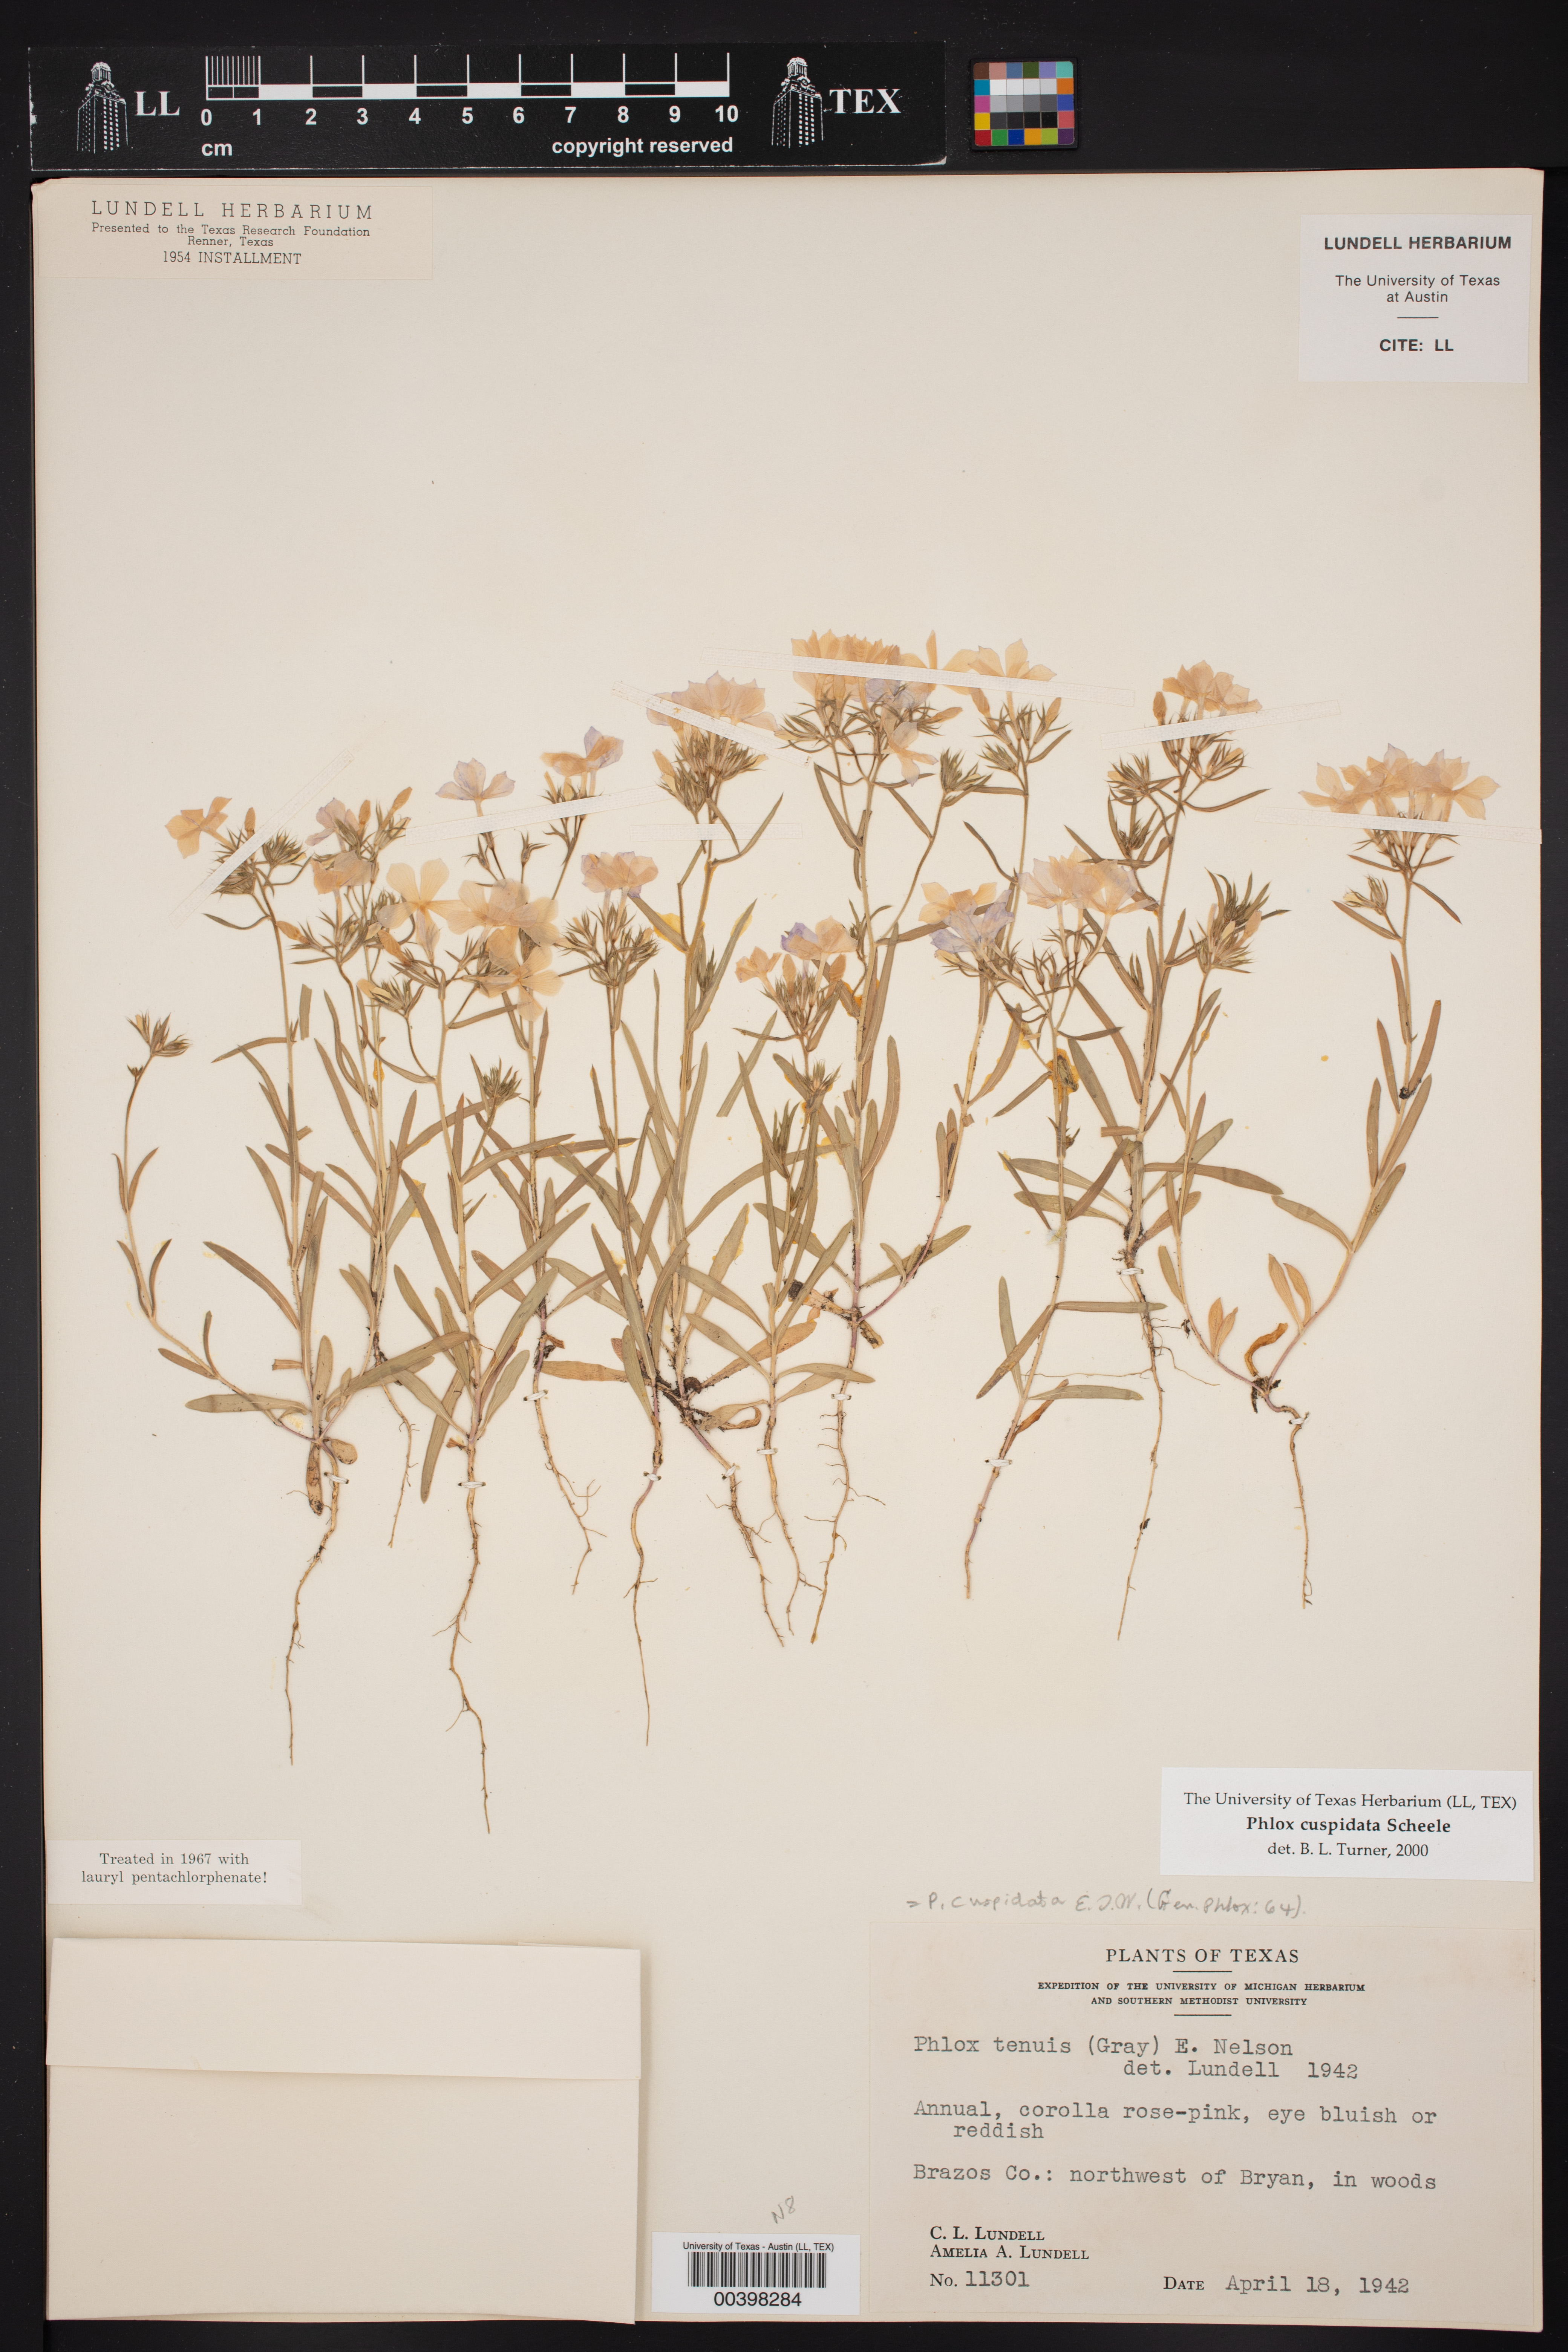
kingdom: Plantae
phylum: Tracheophyta
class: Magnoliopsida
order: Ericales
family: Polemoniaceae
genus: Phlox
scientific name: Phlox cuspidata
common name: Pointed phlox
